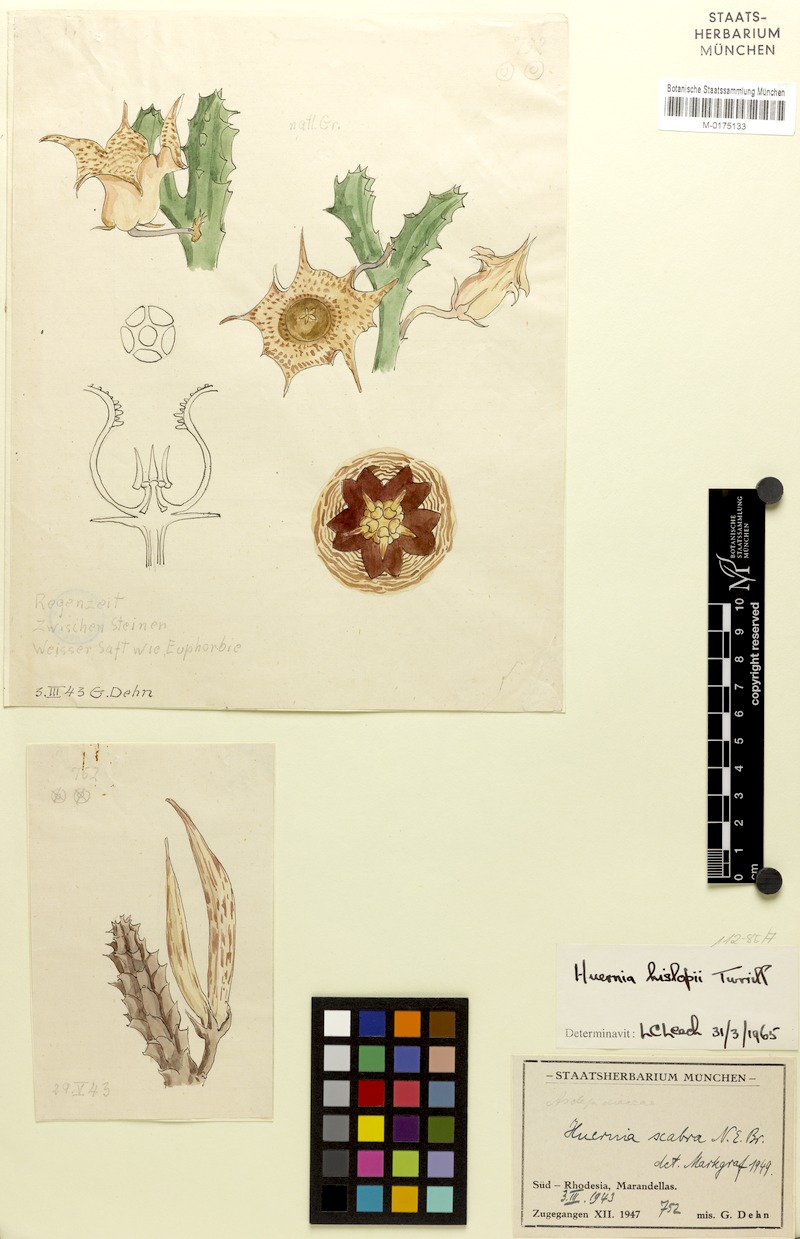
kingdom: Plantae
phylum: Tracheophyta
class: Magnoliopsida
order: Gentianales
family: Apocynaceae
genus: Ceropegia
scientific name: Ceropegia hislopii
